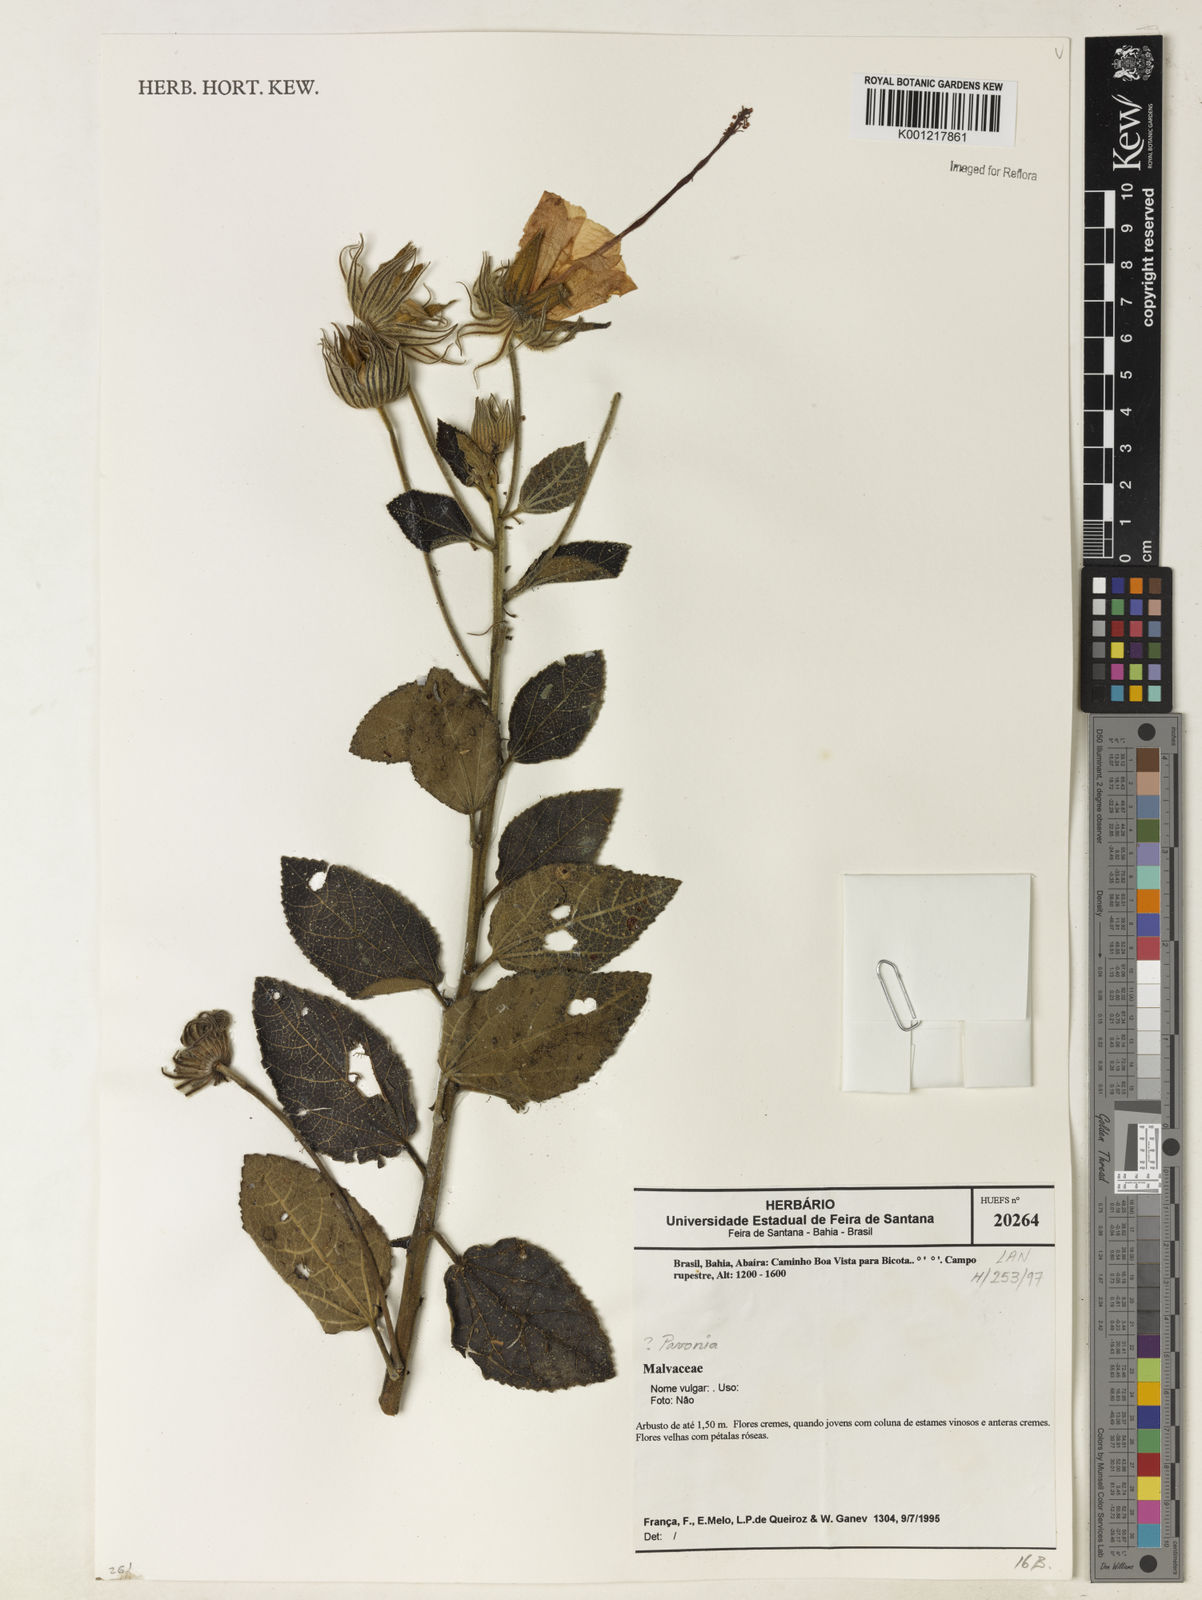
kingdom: Plantae
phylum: Tracheophyta
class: Magnoliopsida
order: Malvales
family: Malvaceae
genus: Pavonia
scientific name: Pavonia
